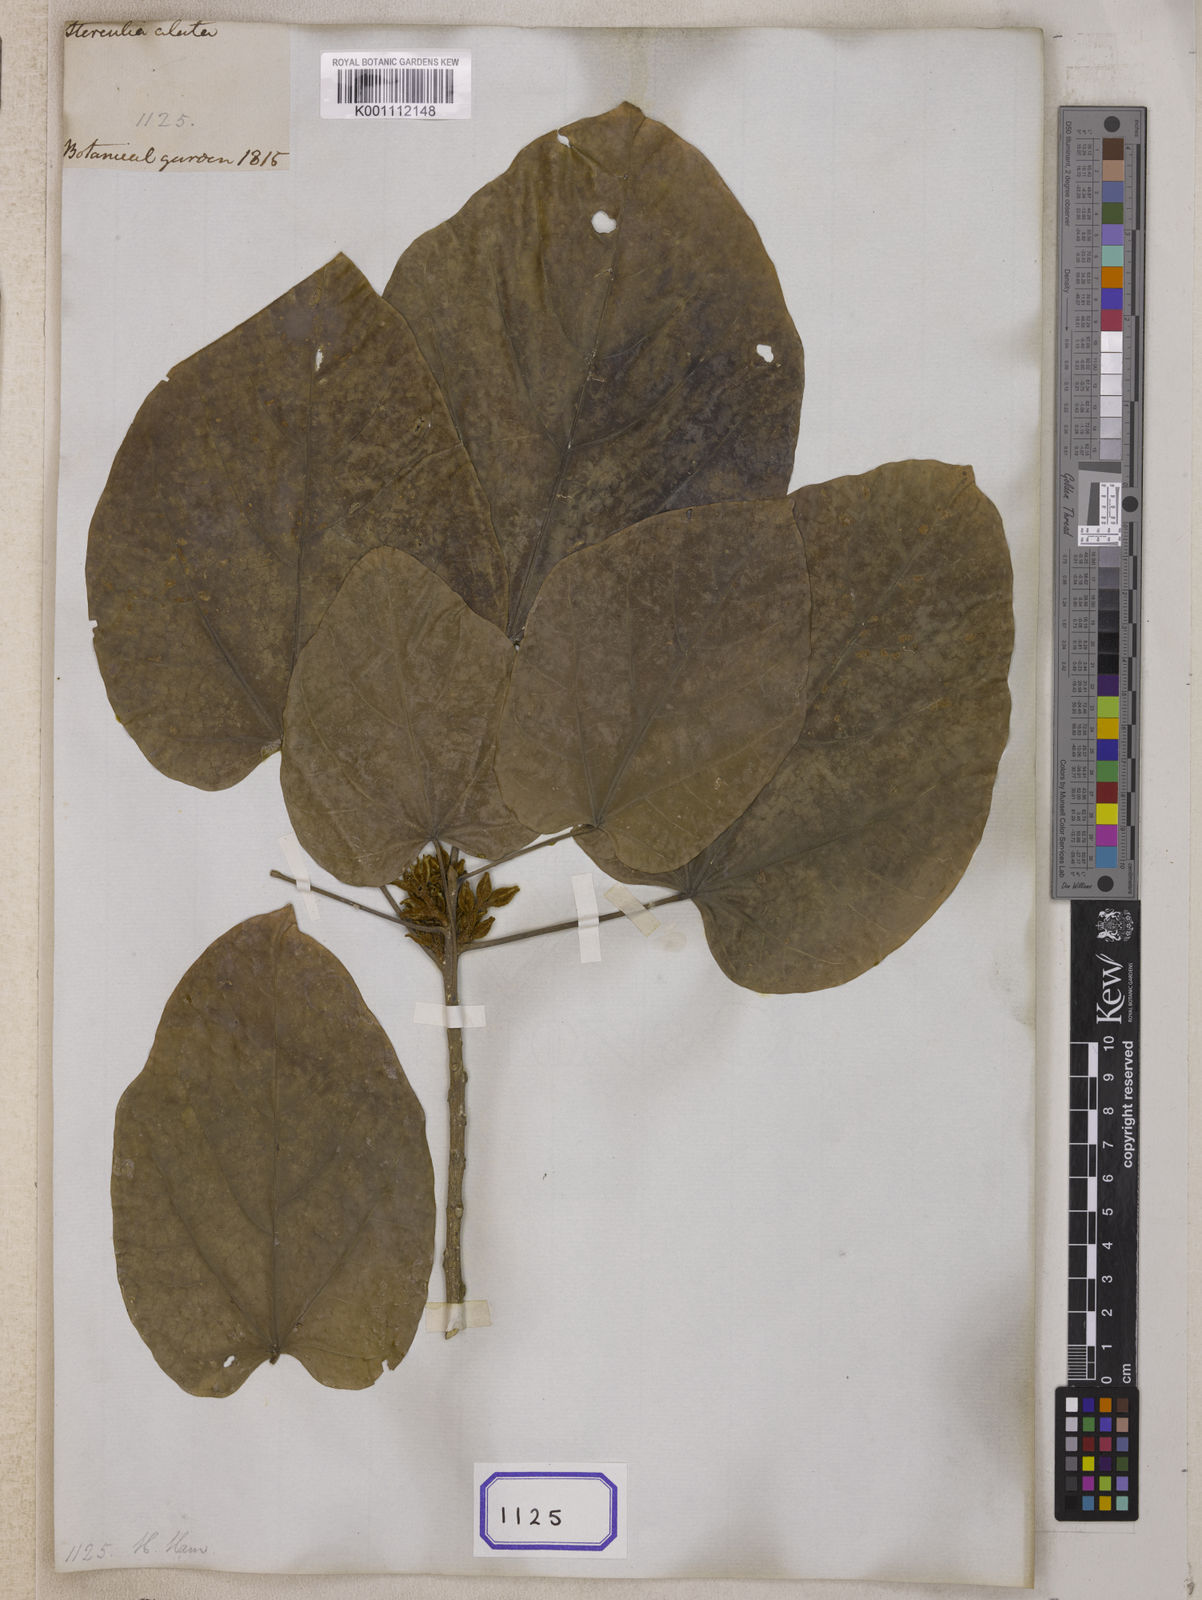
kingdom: Plantae
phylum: Tracheophyta
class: Magnoliopsida
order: Malvales
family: Malvaceae
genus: Pterygota
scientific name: Pterygota alata
